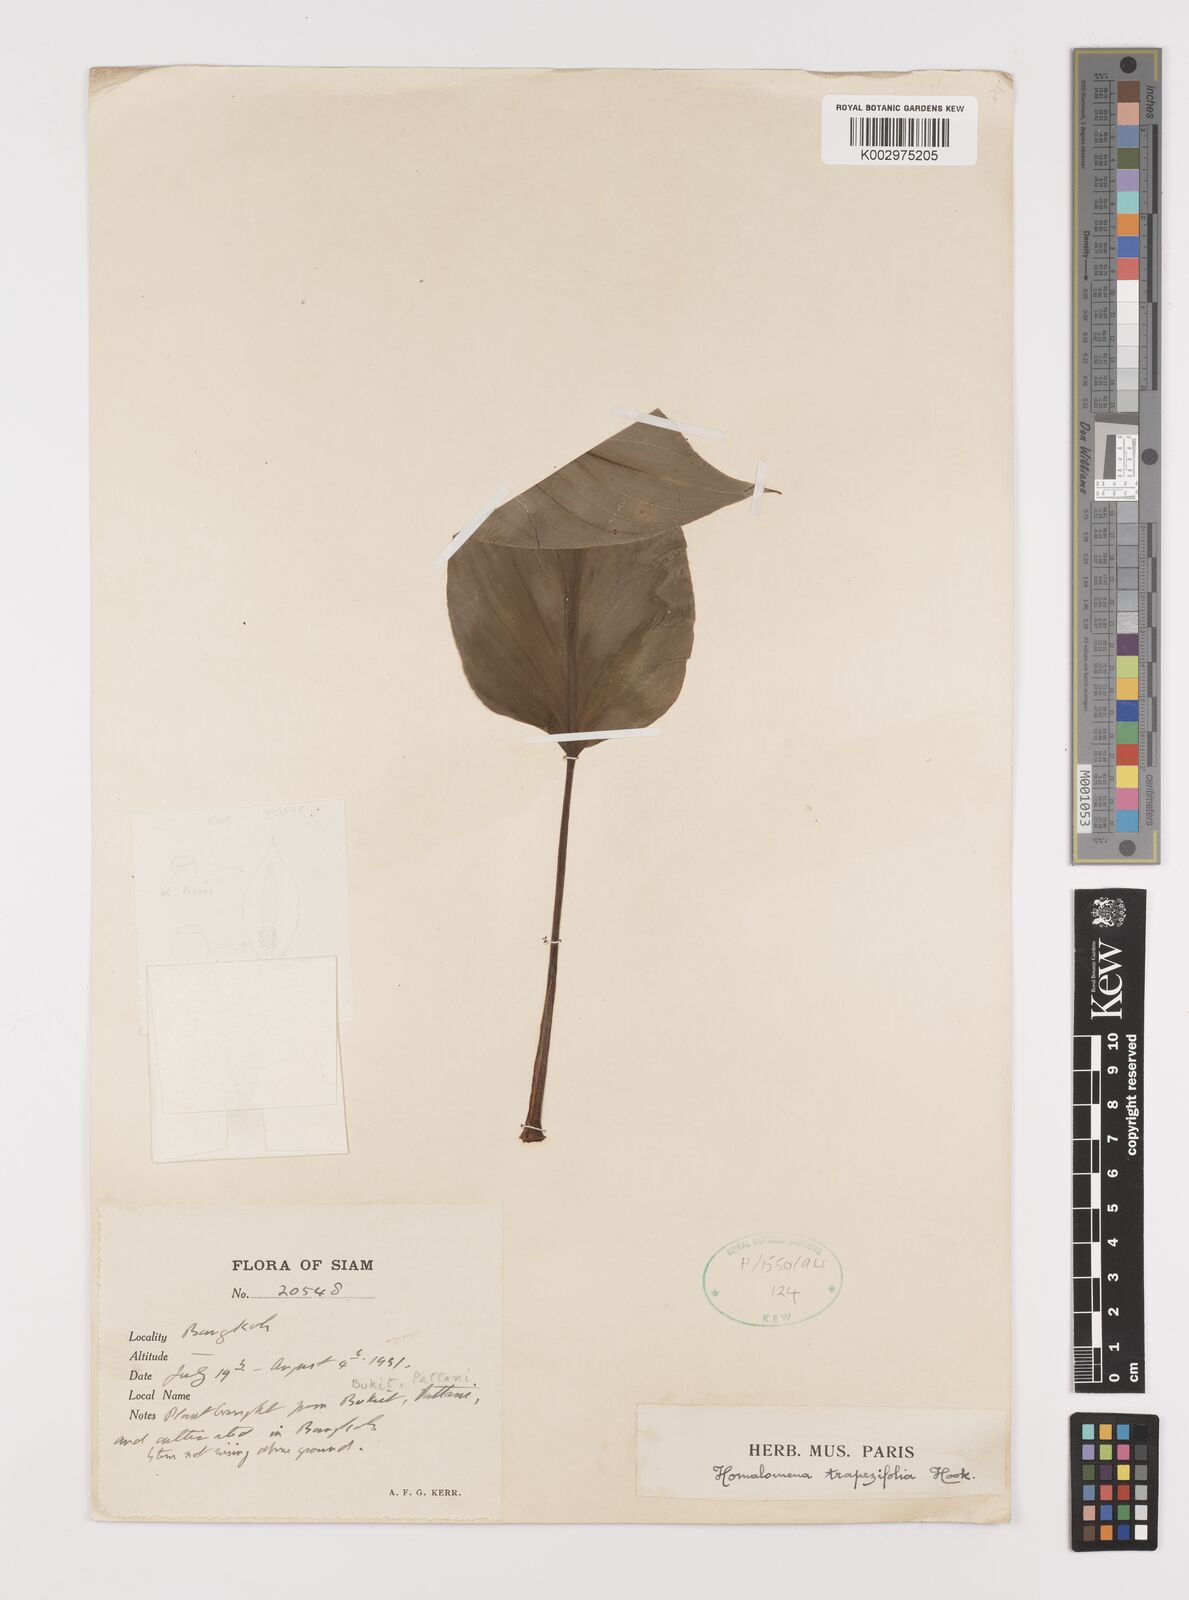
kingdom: Plantae
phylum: Tracheophyta
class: Liliopsida
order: Alismatales
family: Araceae
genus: Homalomena
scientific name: Homalomena griffithii
